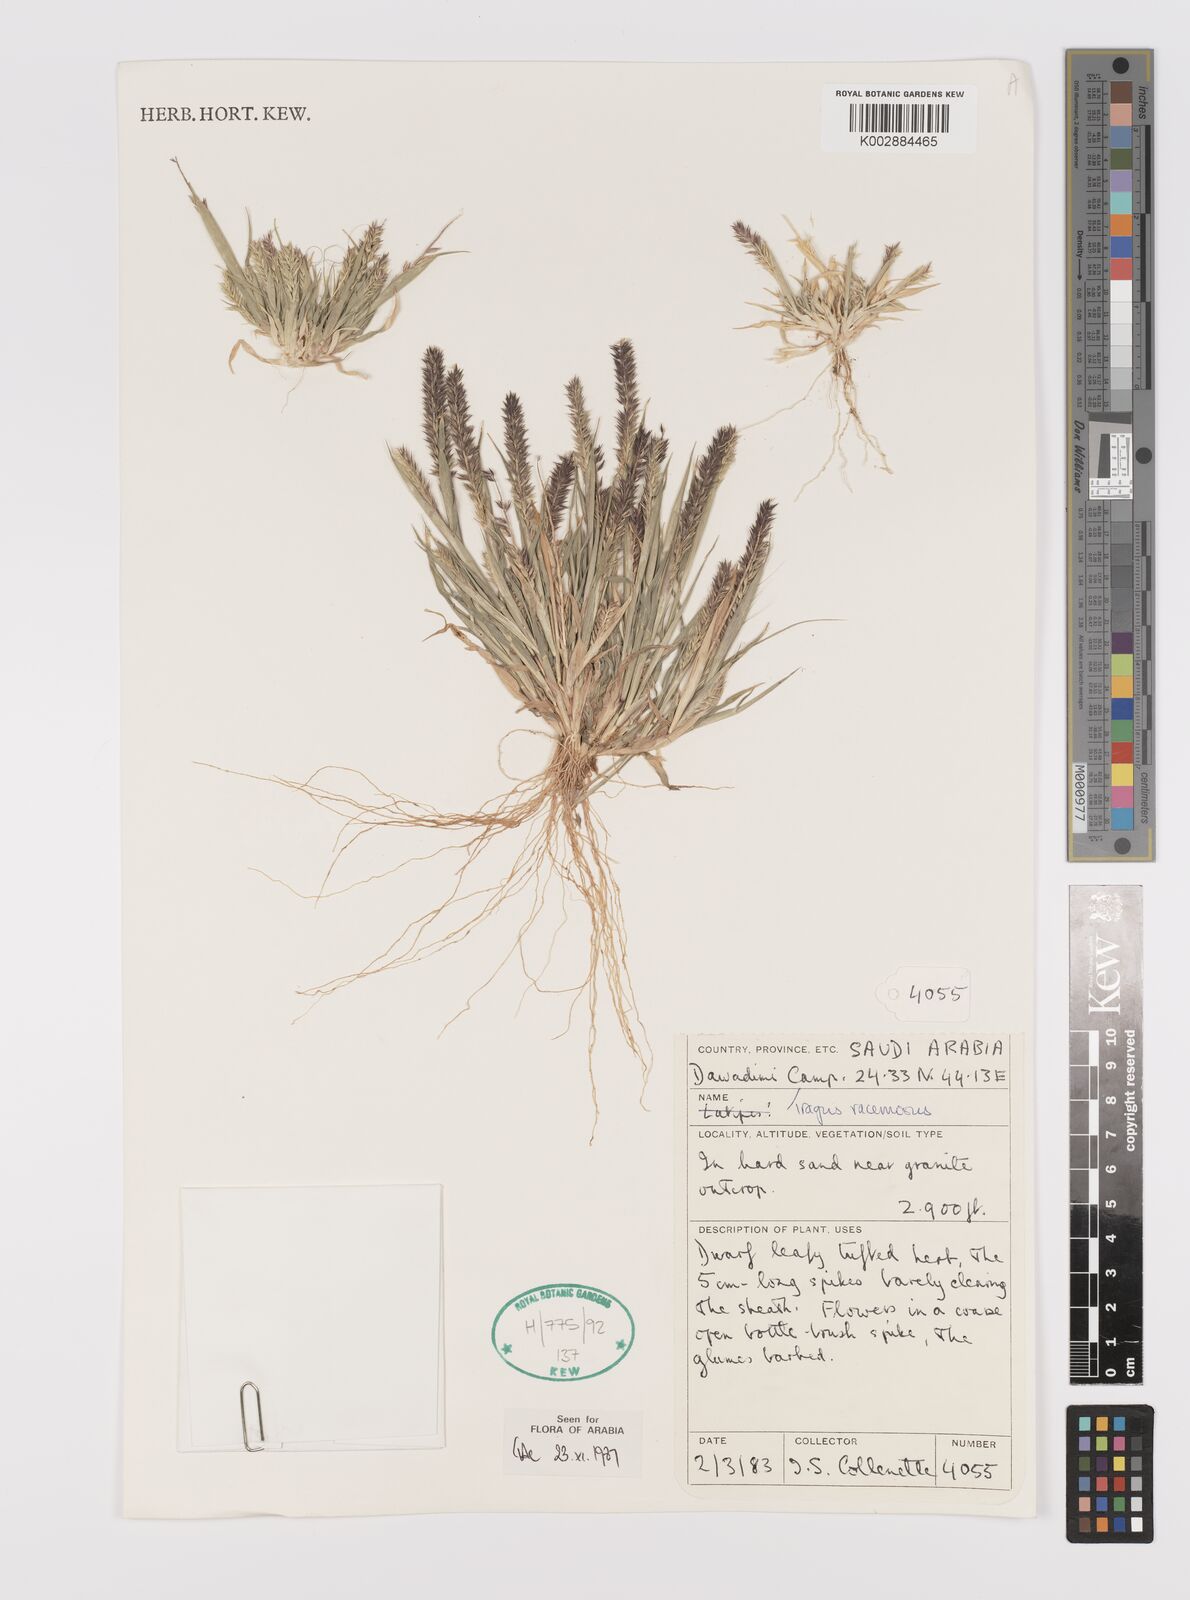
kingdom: Plantae
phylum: Tracheophyta
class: Liliopsida
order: Poales
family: Poaceae
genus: Tragus
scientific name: Tragus racemosus
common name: European bur-grass
